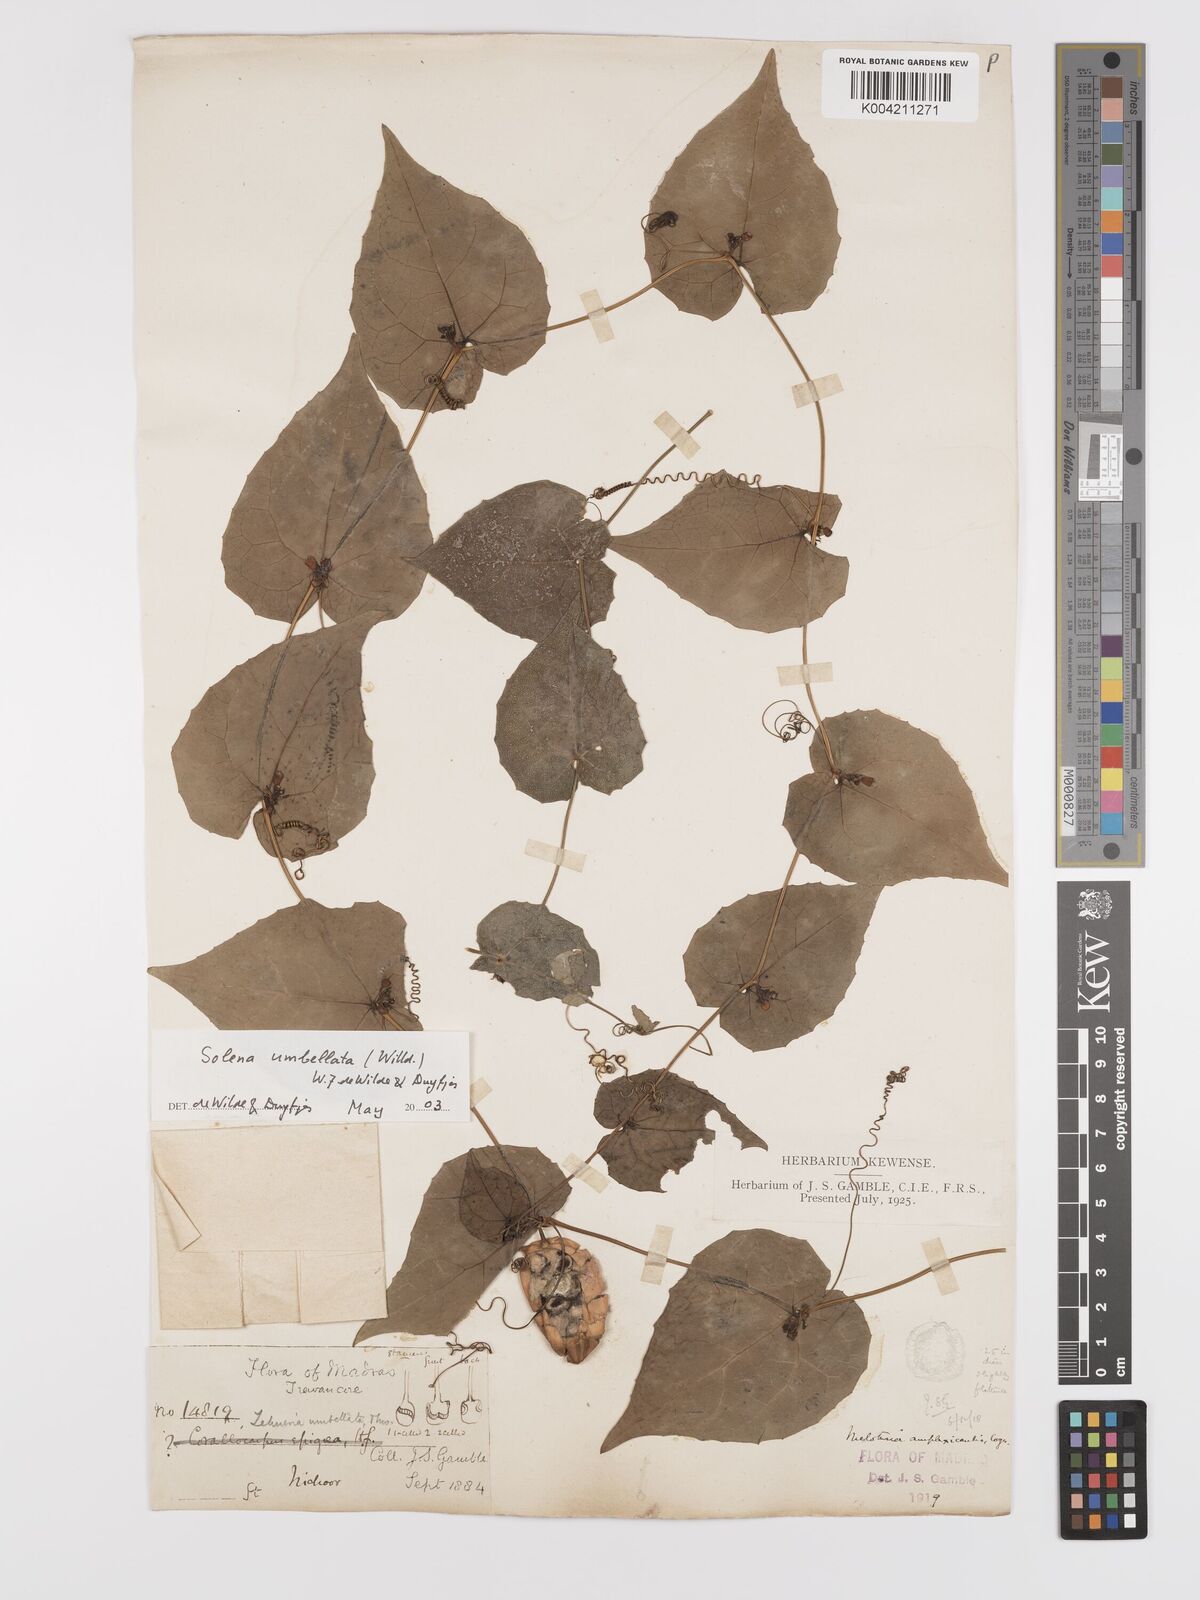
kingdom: Plantae
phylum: Tracheophyta
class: Magnoliopsida
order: Cucurbitales
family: Cucurbitaceae
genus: Solena
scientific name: Solena amplexicaulis
